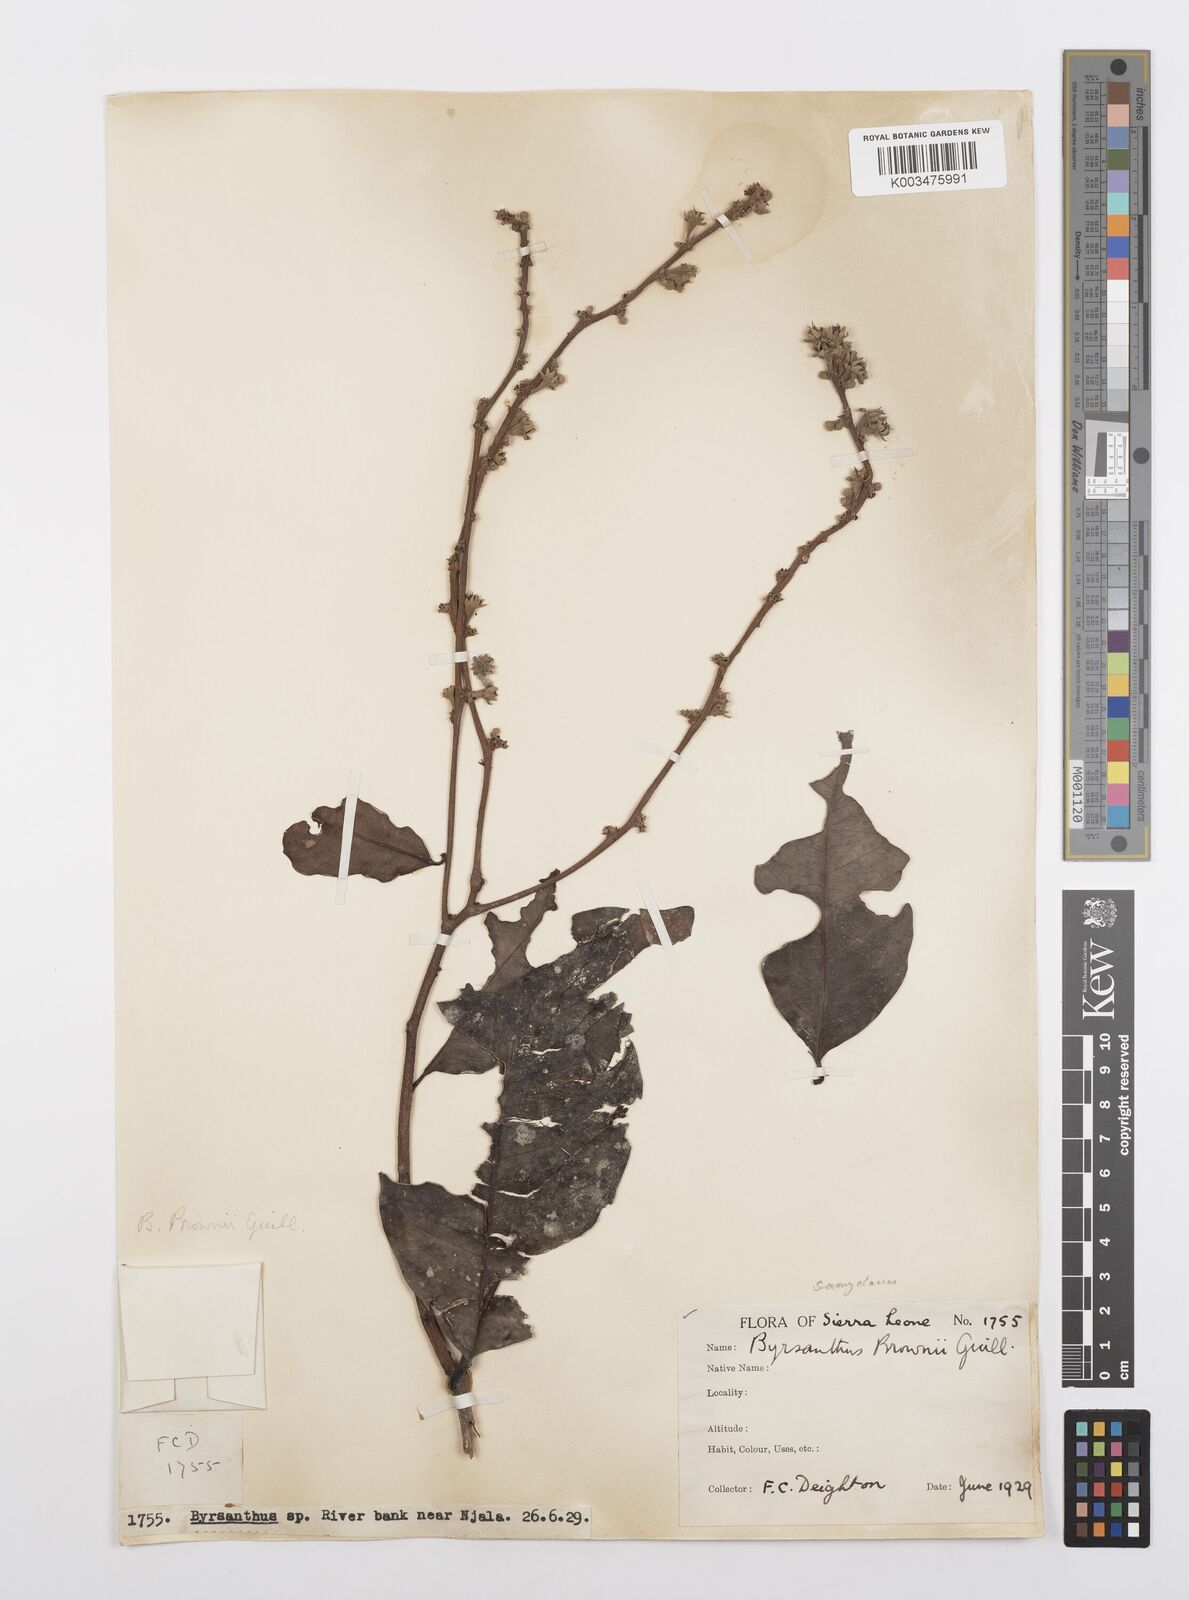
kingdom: Plantae
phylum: Tracheophyta
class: Magnoliopsida
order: Malpighiales
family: Salicaceae
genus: Byrsanthus
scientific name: Byrsanthus brownii
